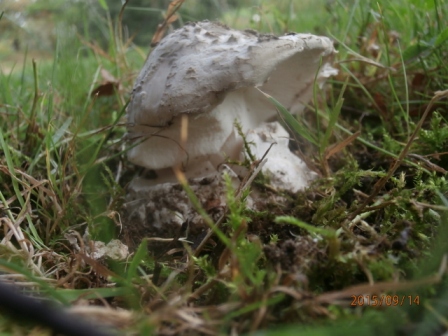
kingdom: Fungi
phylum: Basidiomycota
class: Agaricomycetes
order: Agaricales
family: Amanitaceae
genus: Amanita
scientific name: Amanita
